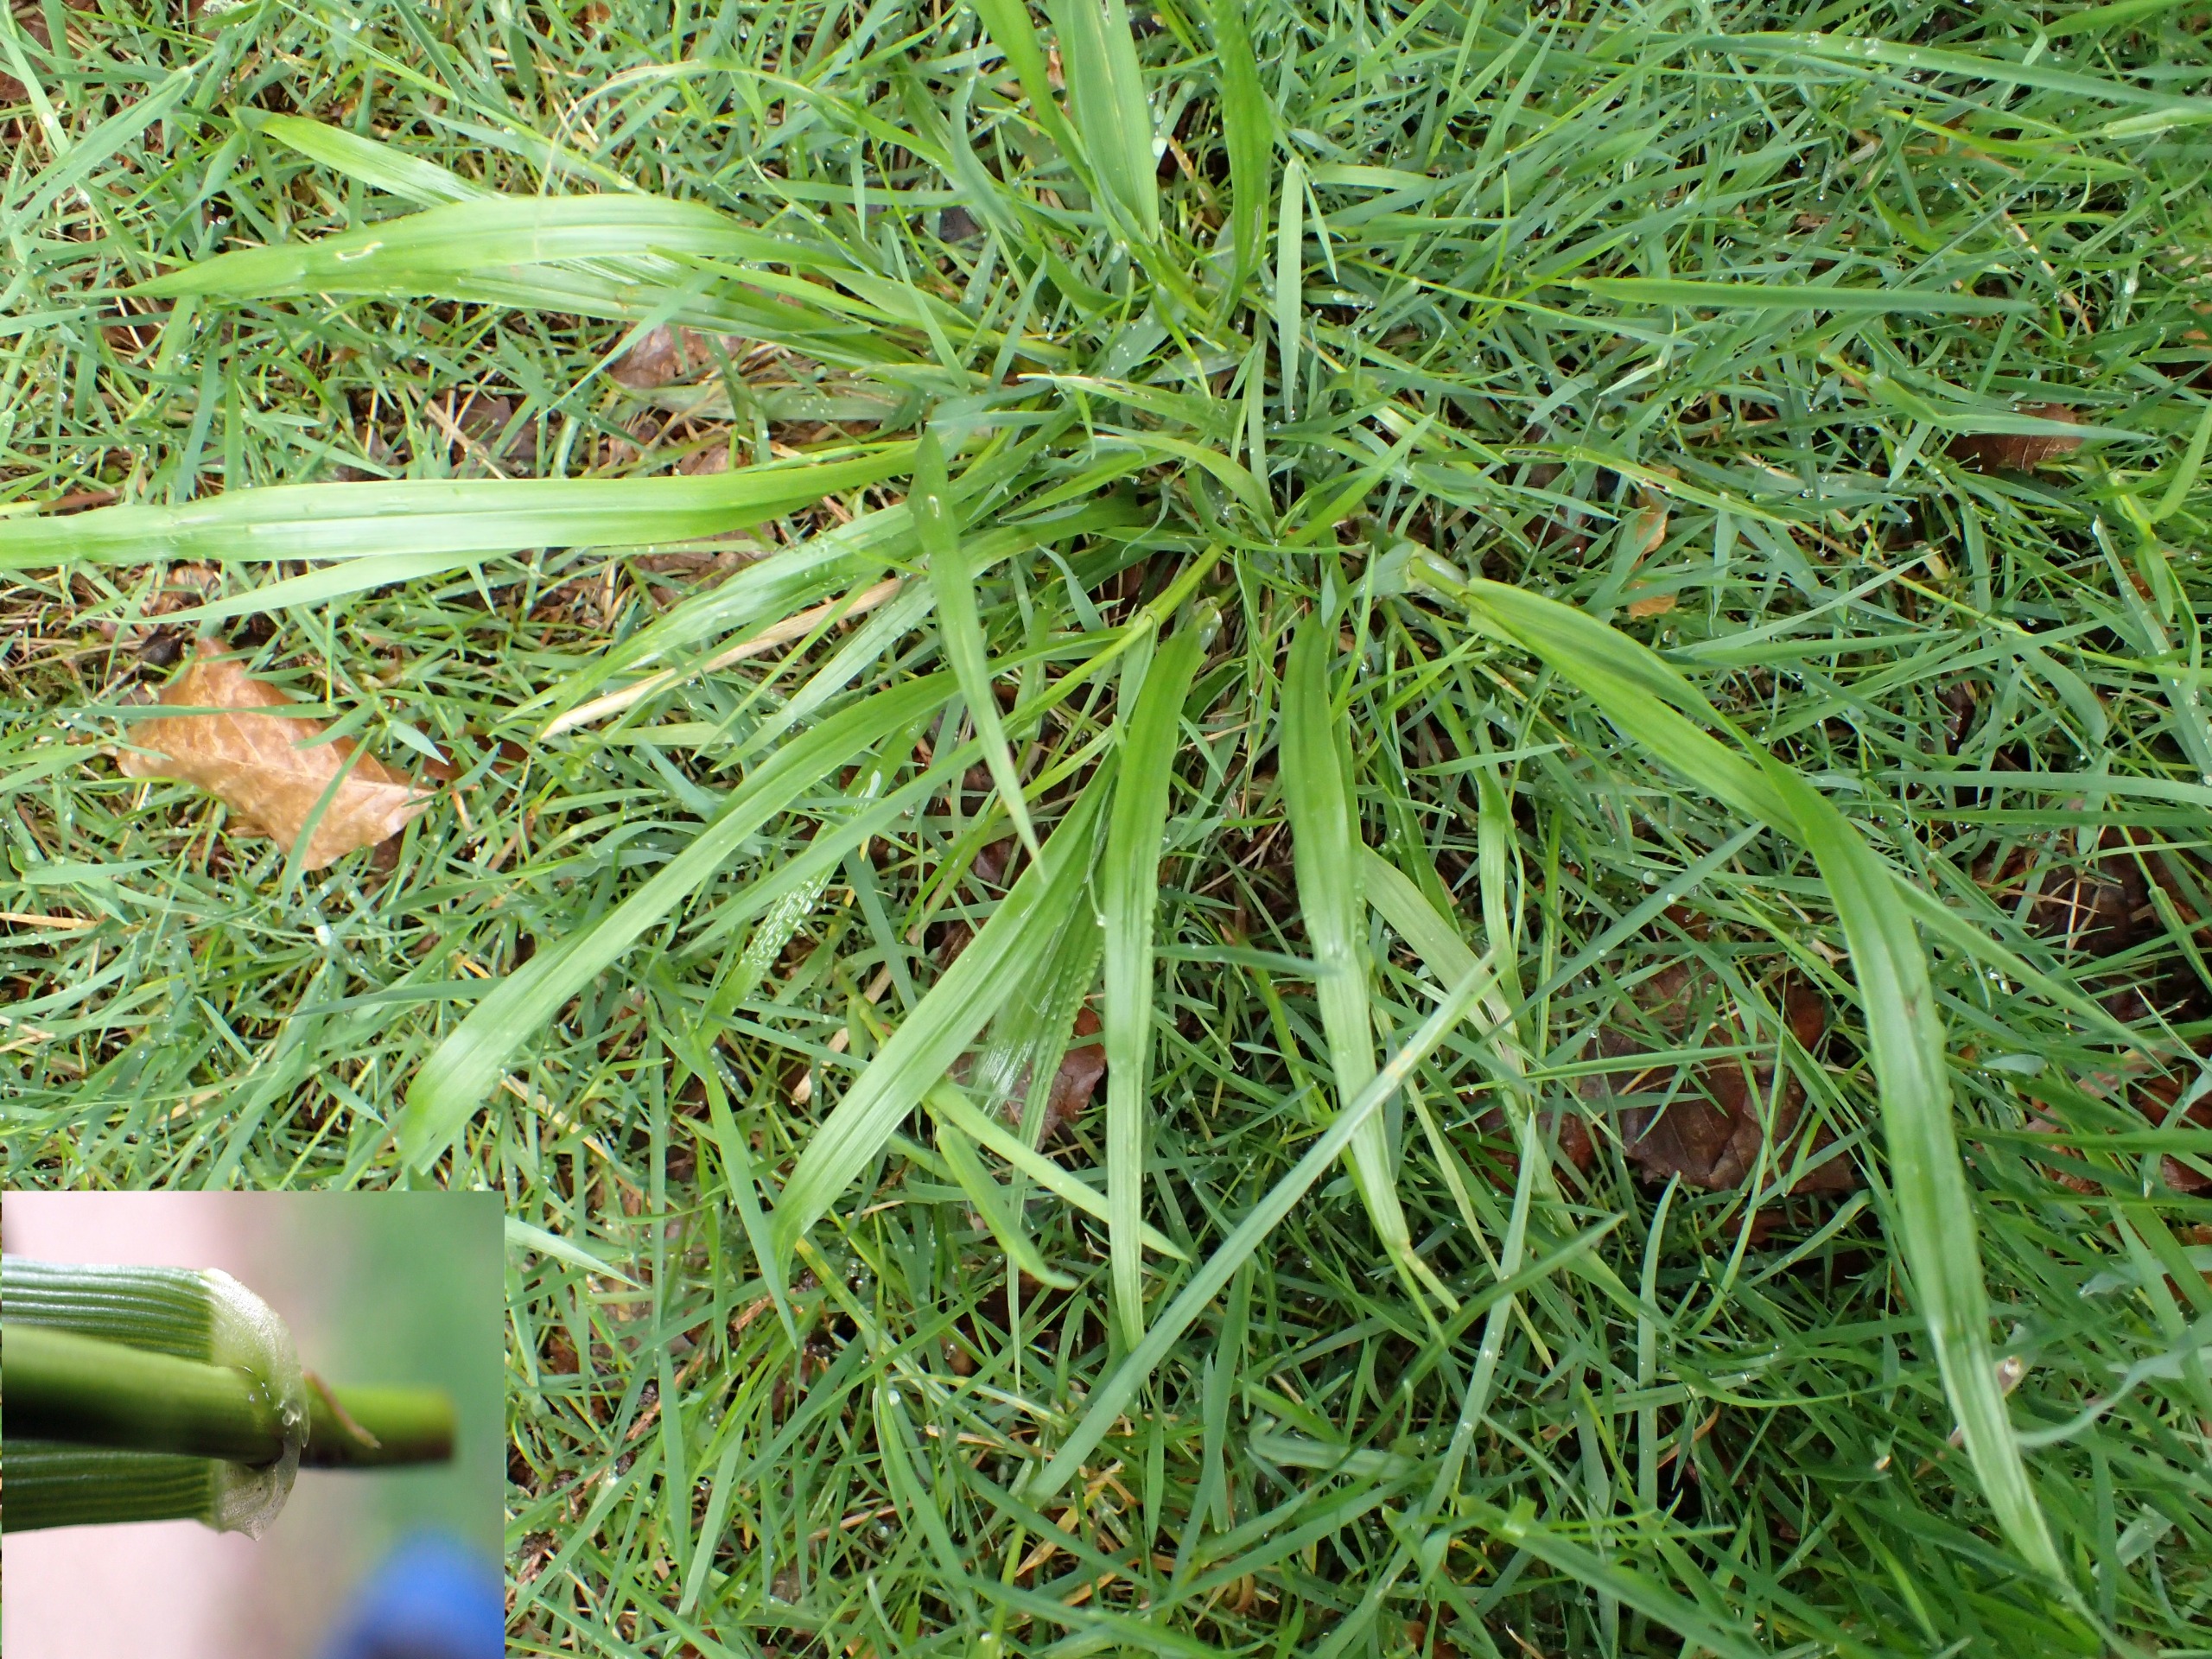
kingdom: Plantae
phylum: Tracheophyta
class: Liliopsida
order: Poales
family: Poaceae
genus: Lolium
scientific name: Lolium giganteum
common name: Kæmpe-svingel
